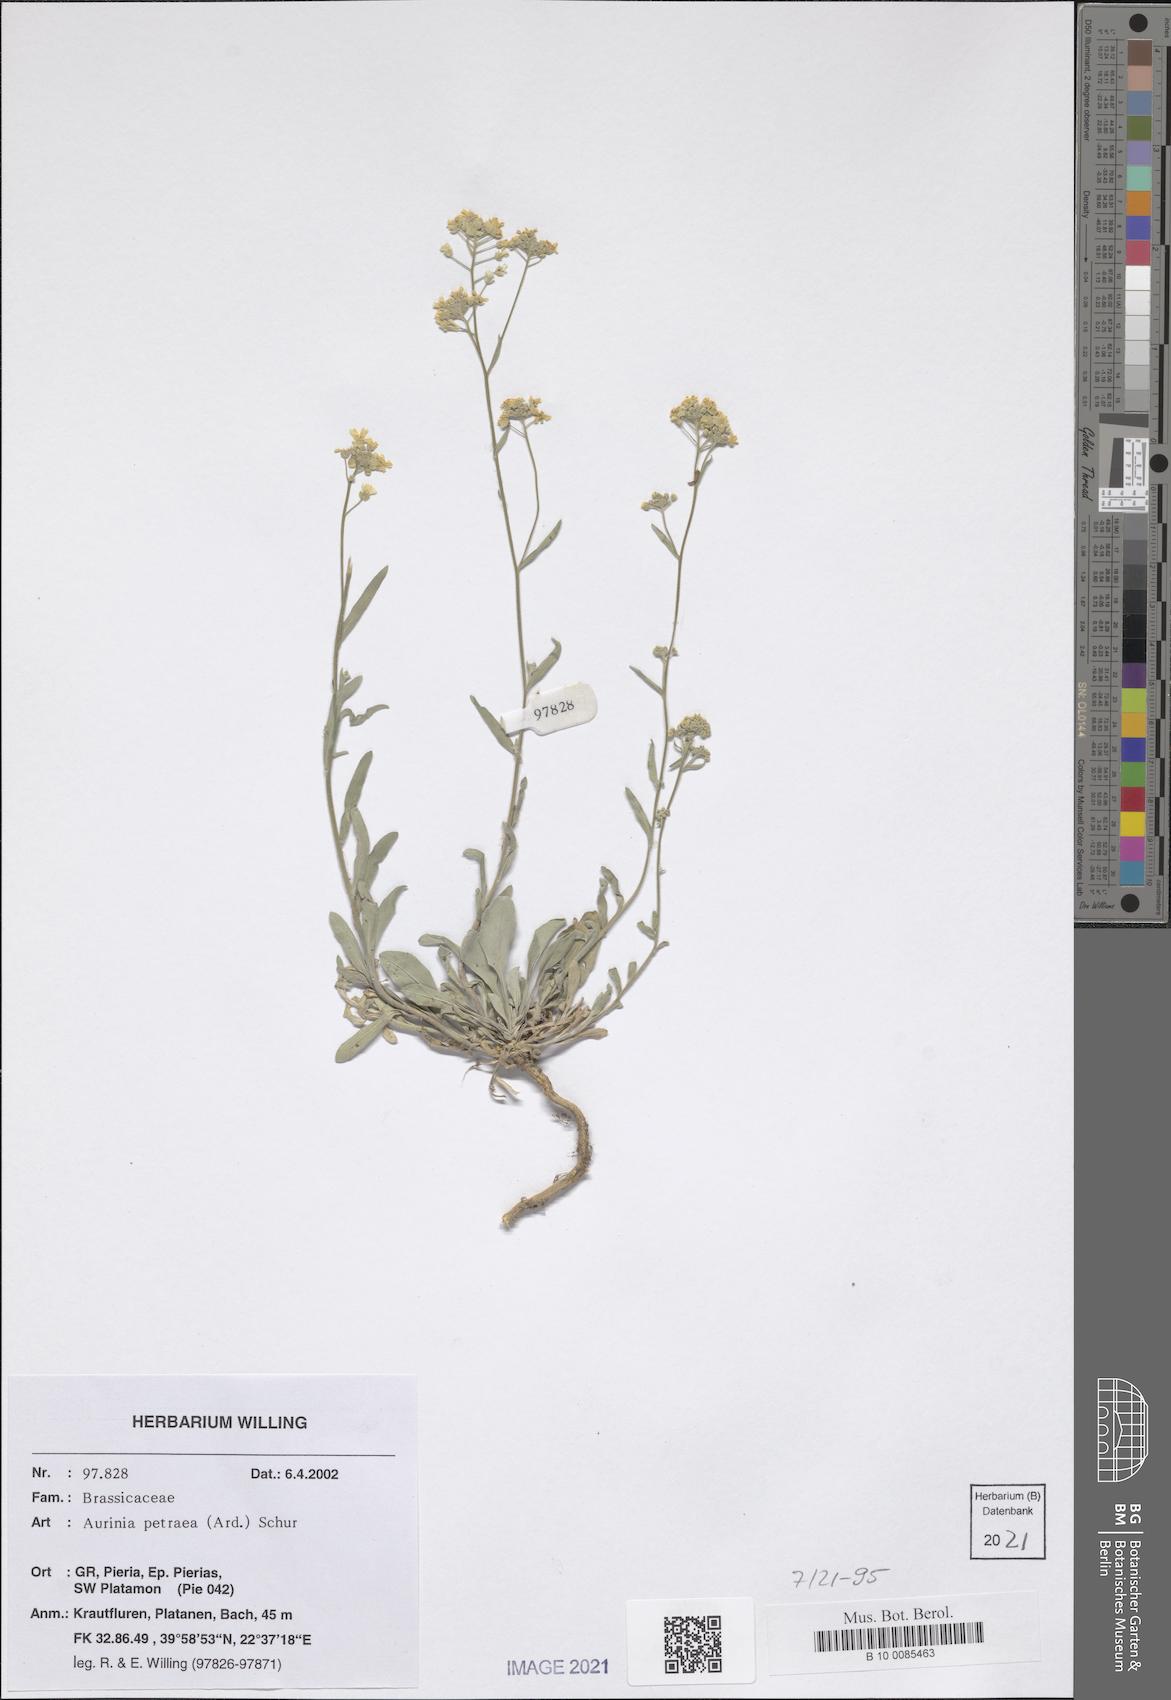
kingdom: Plantae
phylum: Tracheophyta
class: Magnoliopsida
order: Brassicales
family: Brassicaceae
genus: Aurinia
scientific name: Aurinia petraea
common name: Goldentuft
